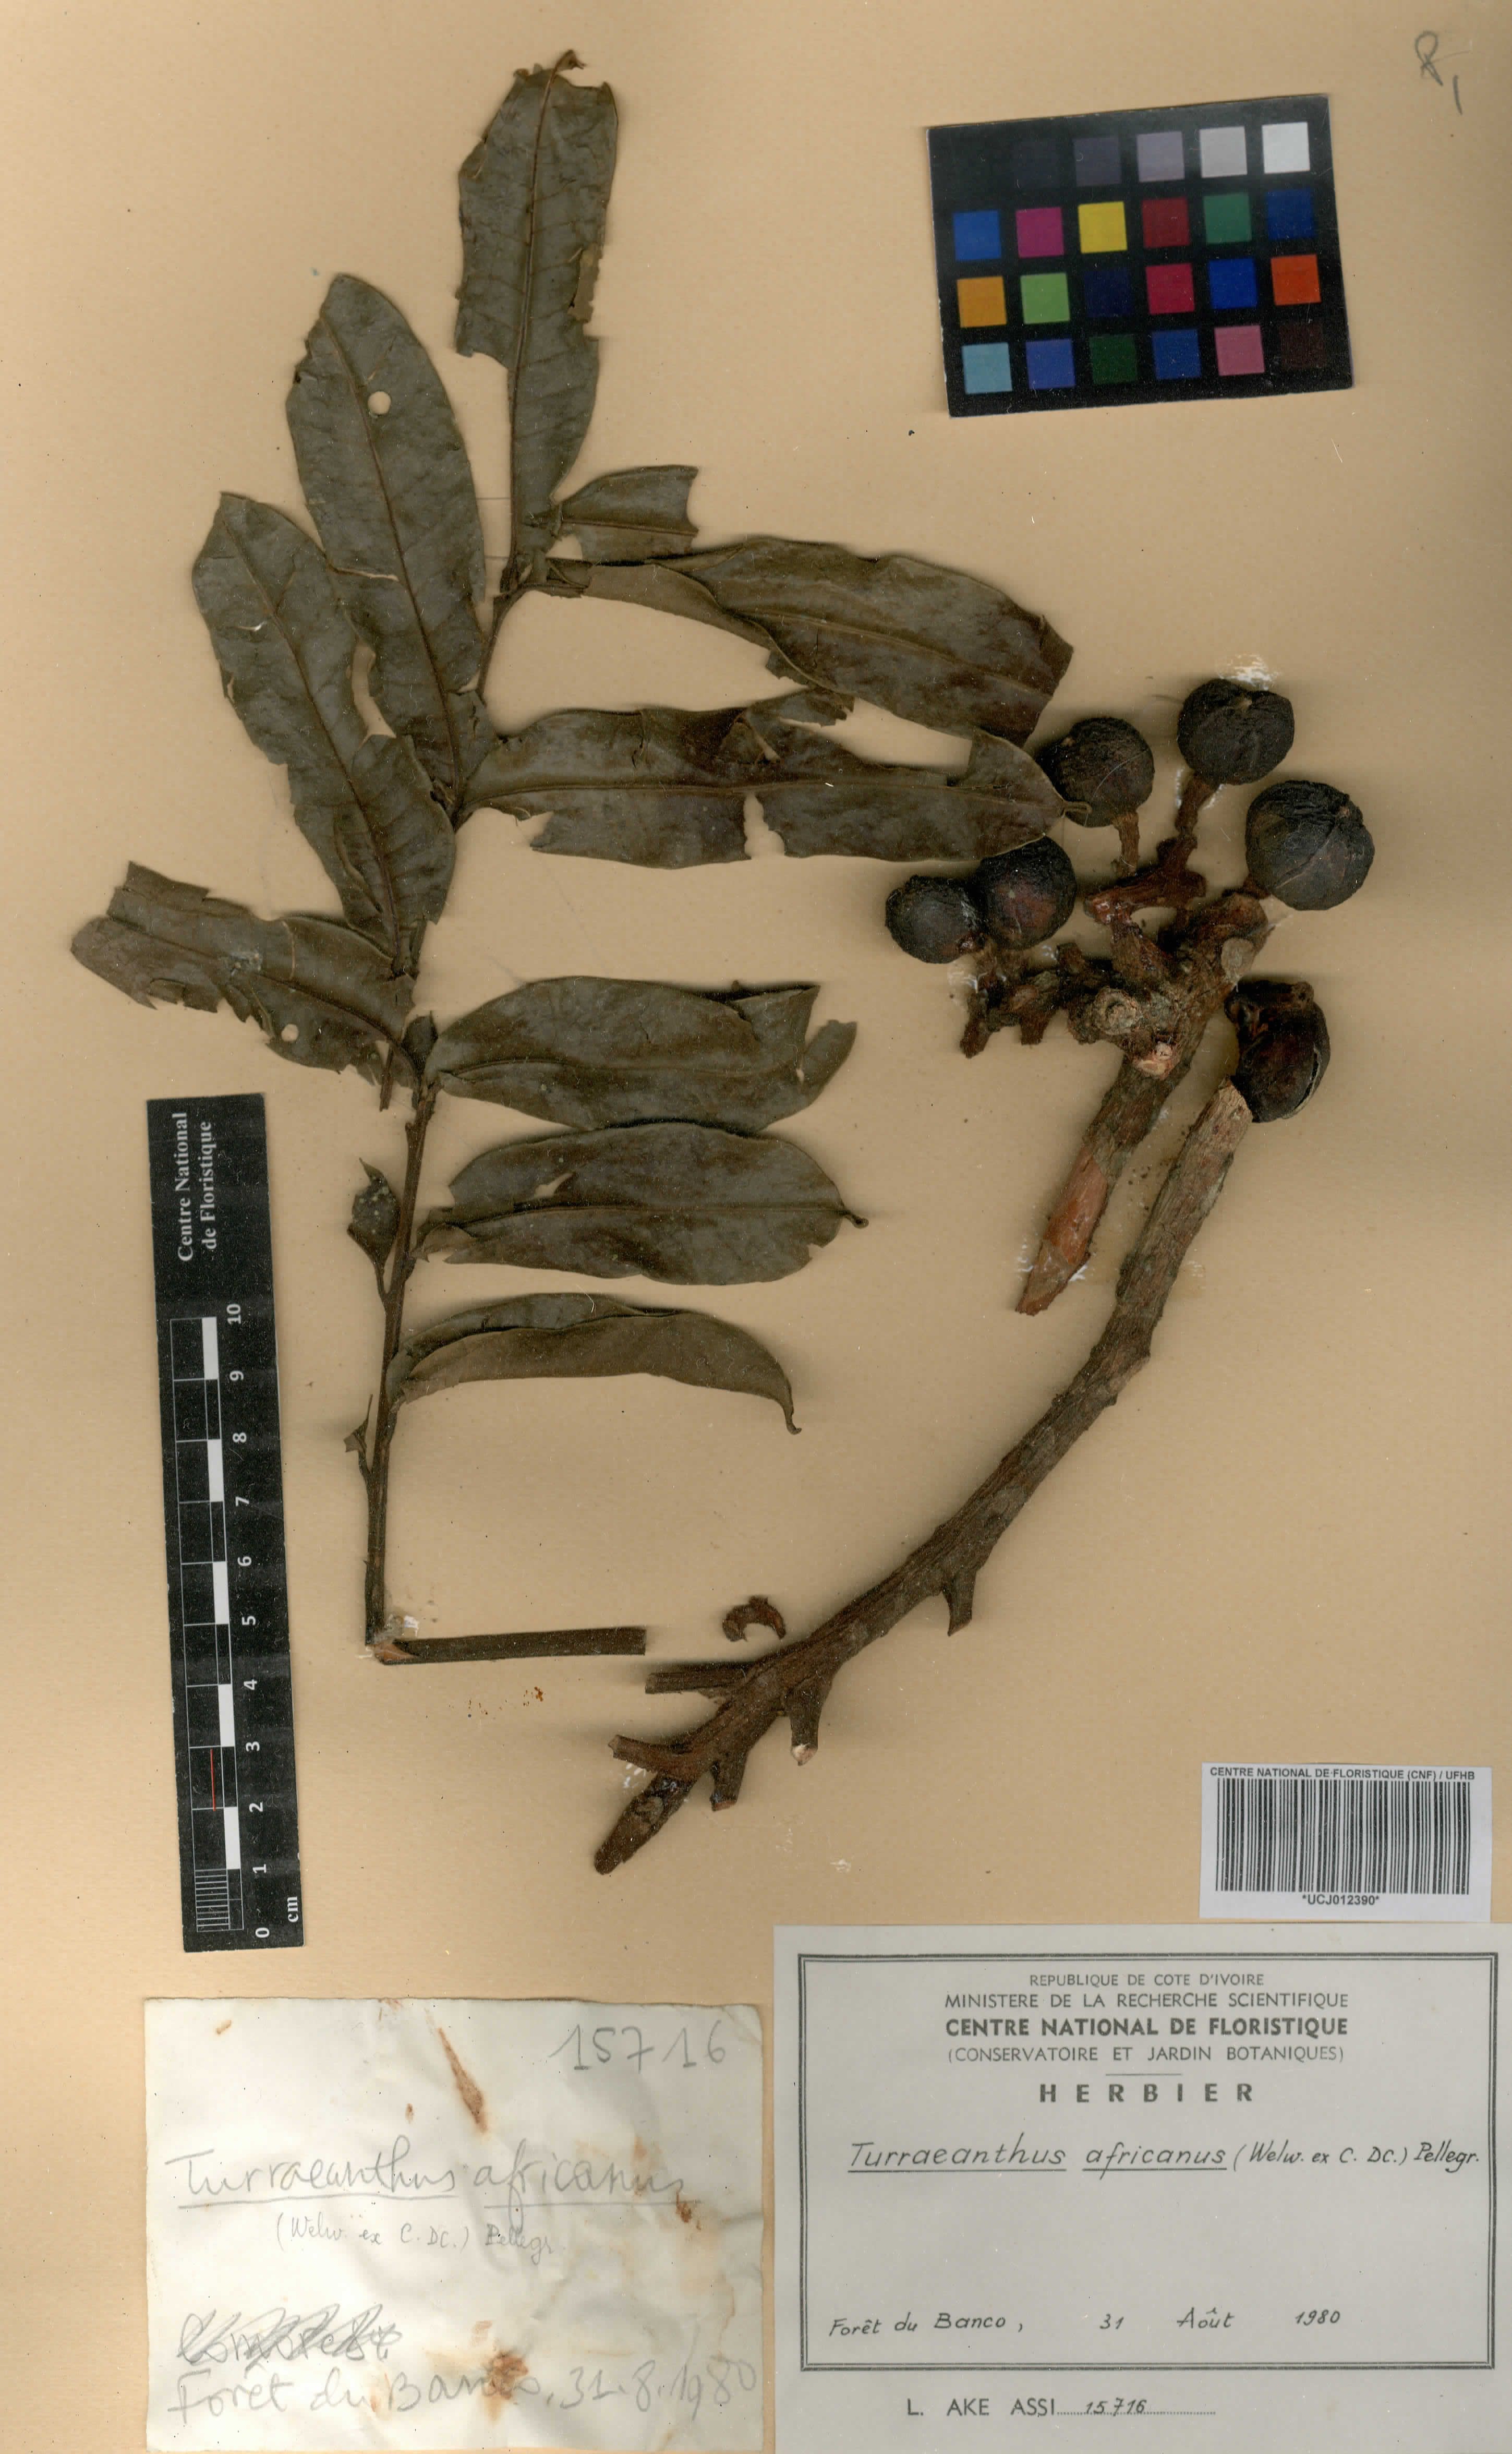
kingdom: Plantae
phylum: Tracheophyta
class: Magnoliopsida
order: Sapindales
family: Meliaceae
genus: Turraeanthus
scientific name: Turraeanthus africanus
